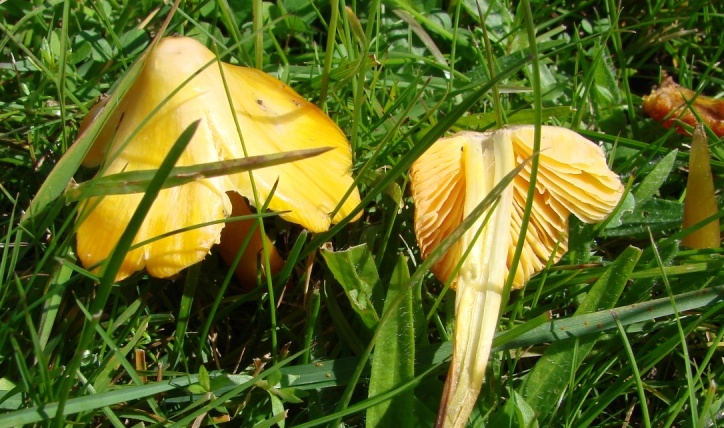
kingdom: Fungi
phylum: Basidiomycota
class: Agaricomycetes
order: Agaricales
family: Hygrophoraceae
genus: Hygrocybe
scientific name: Hygrocybe acutoconica
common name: spidspuklet vokshat
